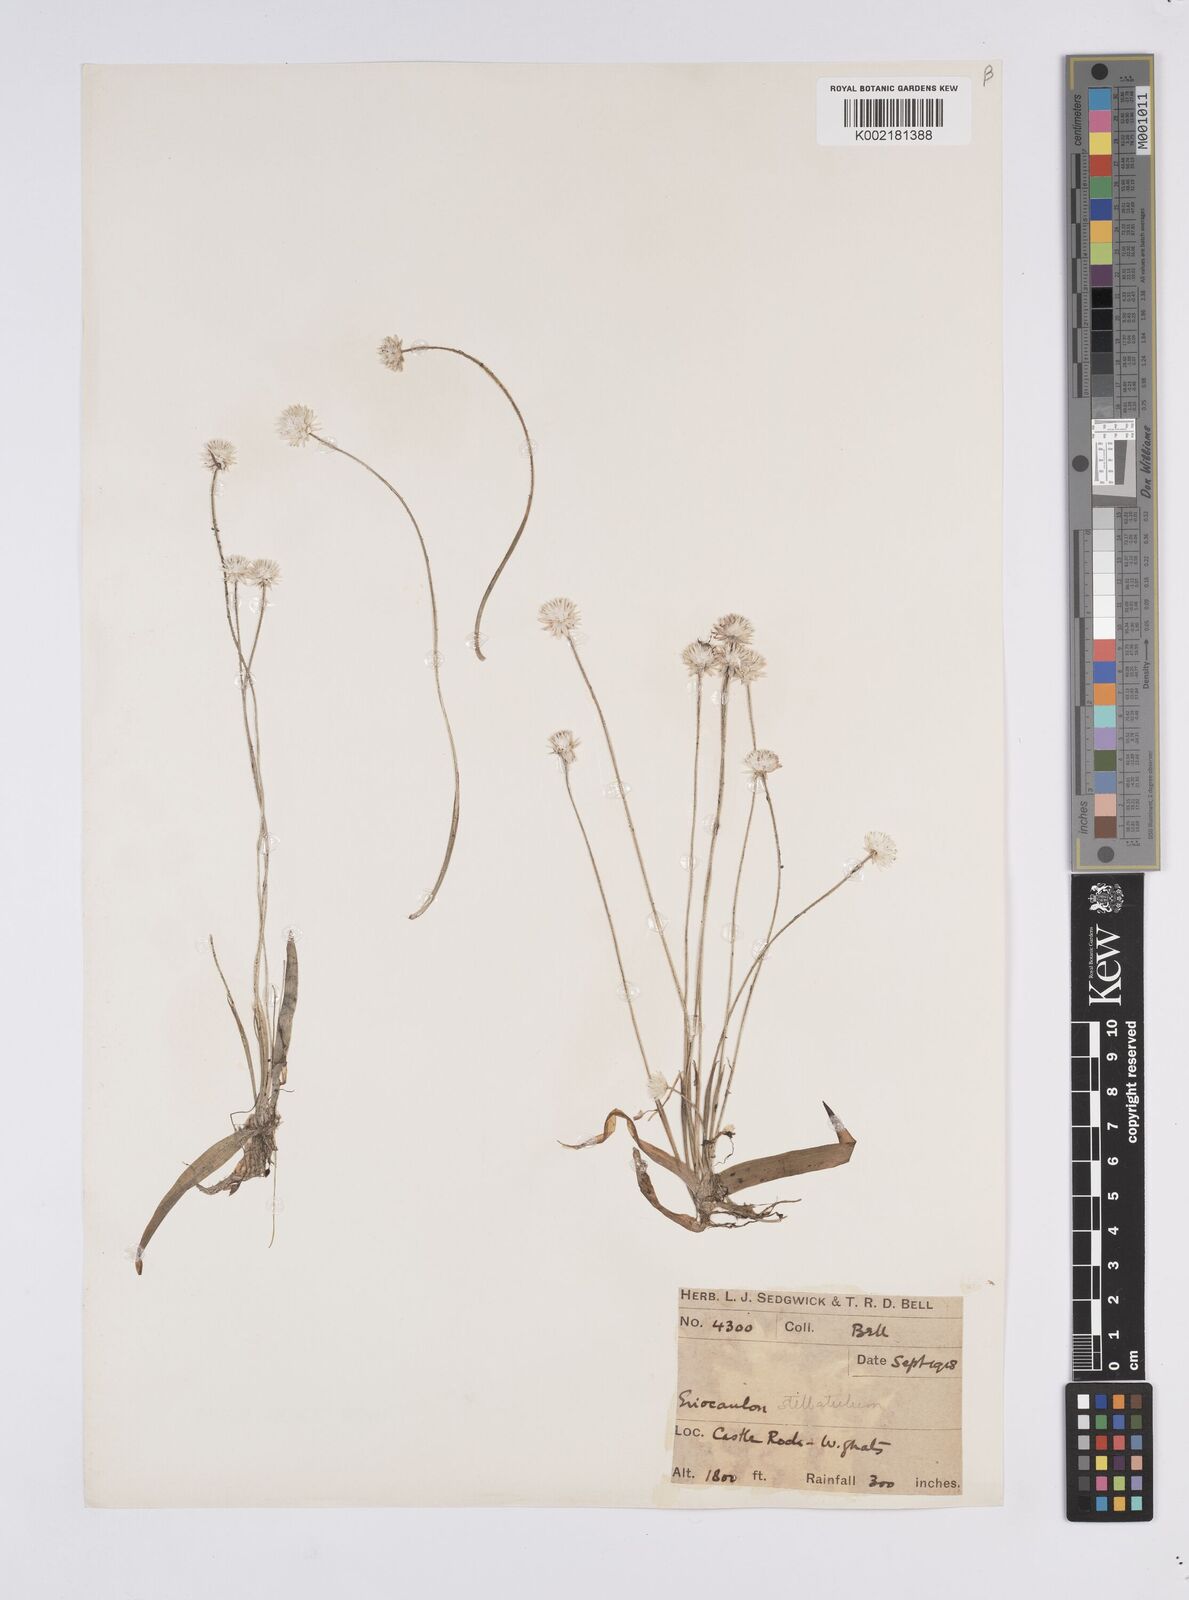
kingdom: Plantae
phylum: Tracheophyta
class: Liliopsida
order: Poales
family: Eriocaulaceae
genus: Eriocaulon
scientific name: Eriocaulon stellulatum
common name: Starry pipewort
